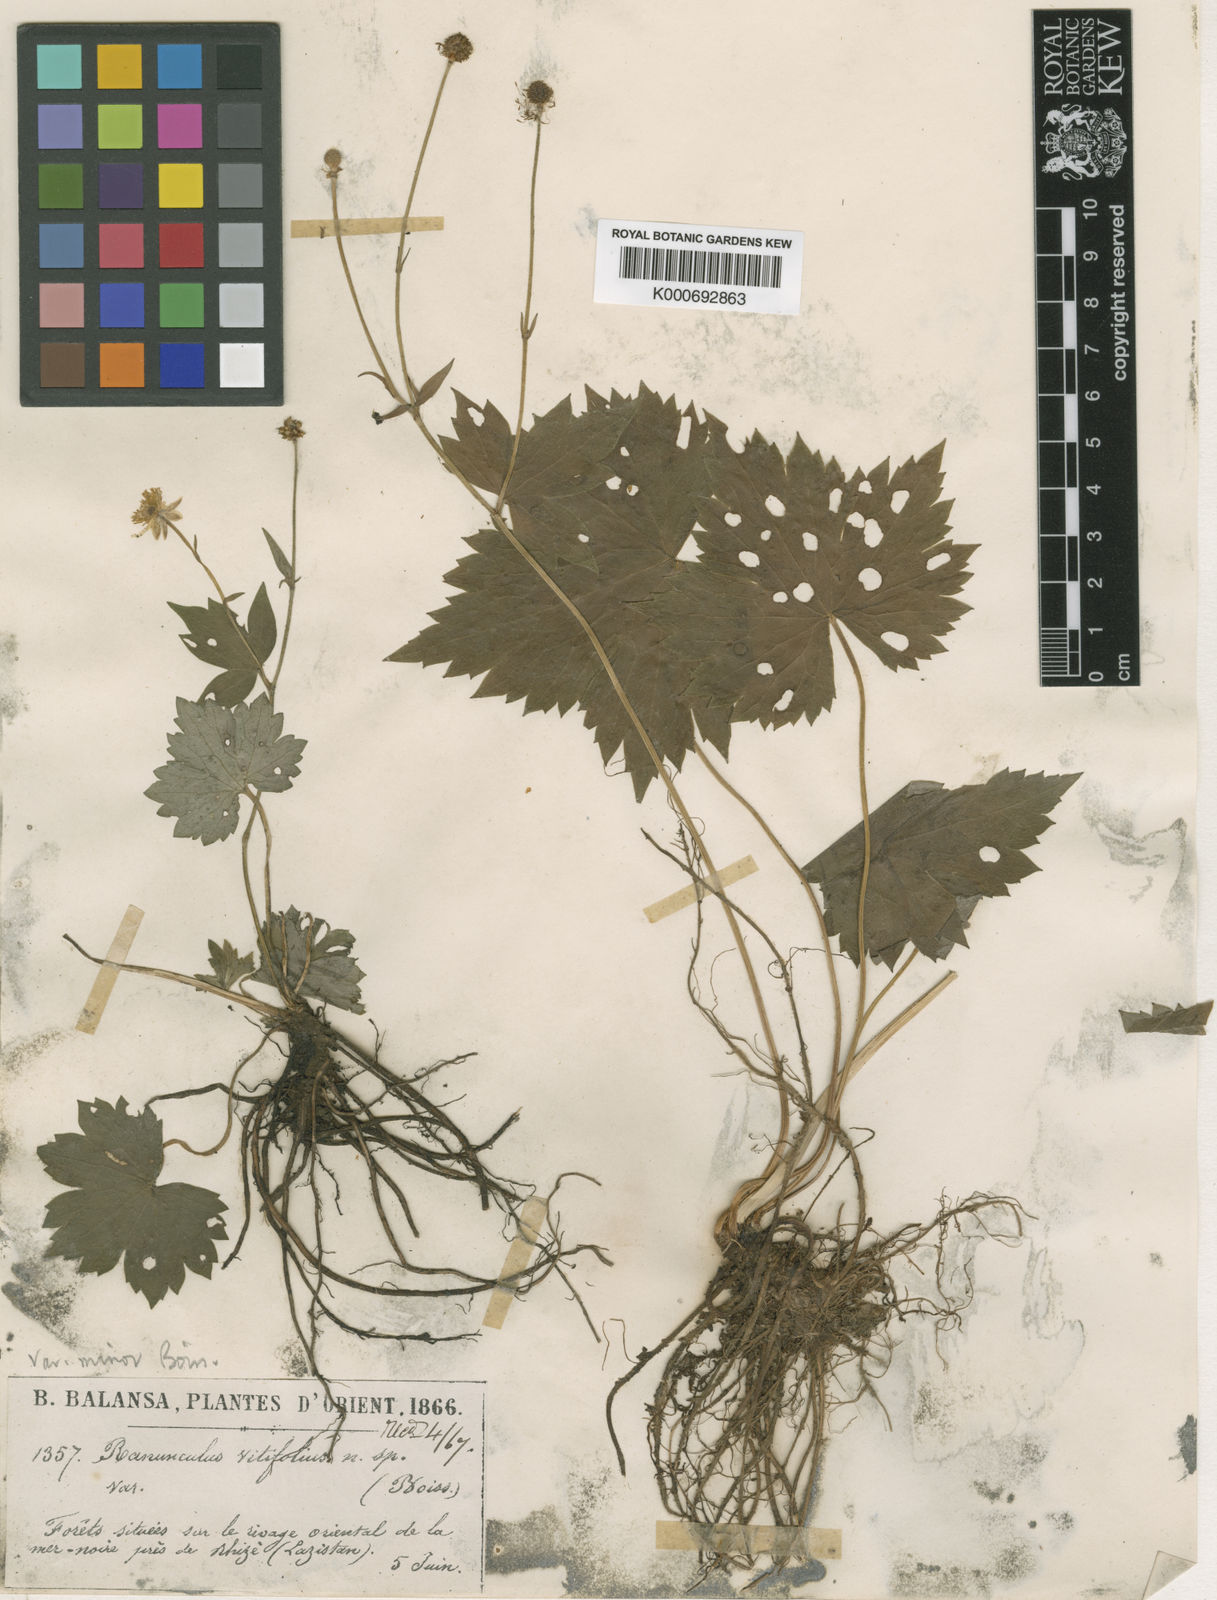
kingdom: Plantae
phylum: Tracheophyta
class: Magnoliopsida
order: Ranunculales
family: Ranunculaceae
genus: Ranunculus
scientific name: Ranunculus cappadocicus
